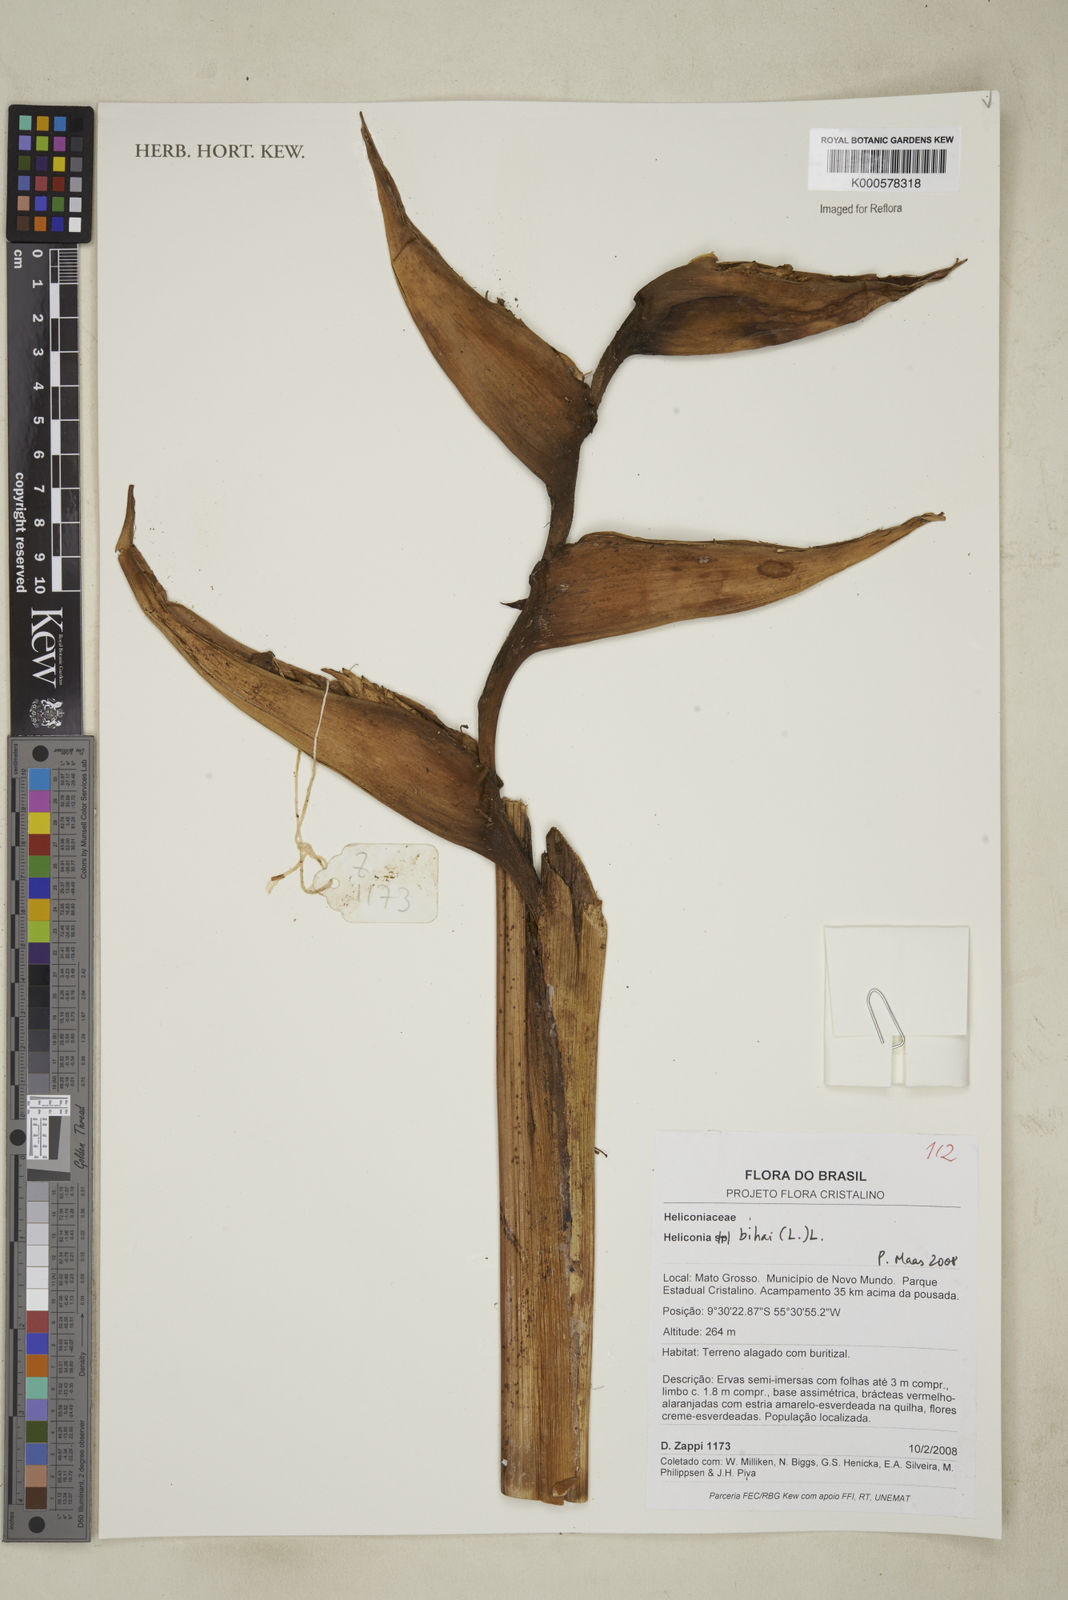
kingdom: Plantae
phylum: Tracheophyta
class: Liliopsida
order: Zingiberales
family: Heliconiaceae
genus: Heliconia
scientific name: Heliconia bihai
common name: Macaw flower
